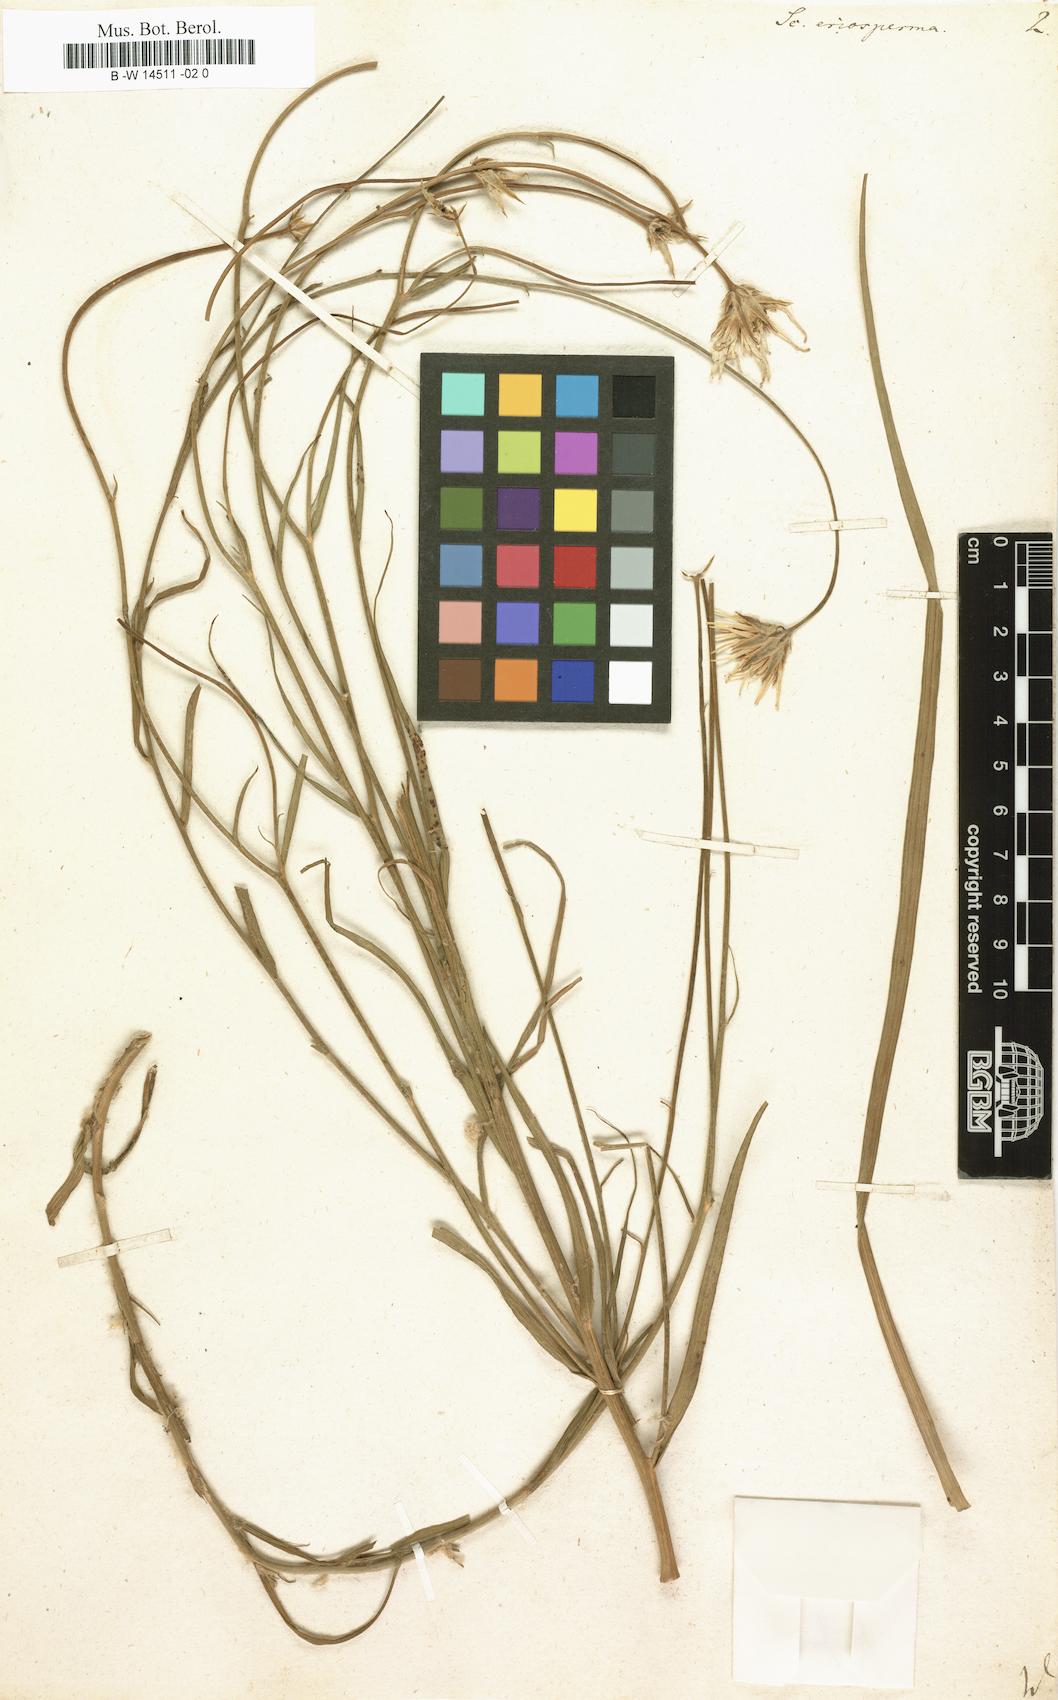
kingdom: Plantae
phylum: Tracheophyta
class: Magnoliopsida
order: Asterales
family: Asteraceae
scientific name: Asteraceae
